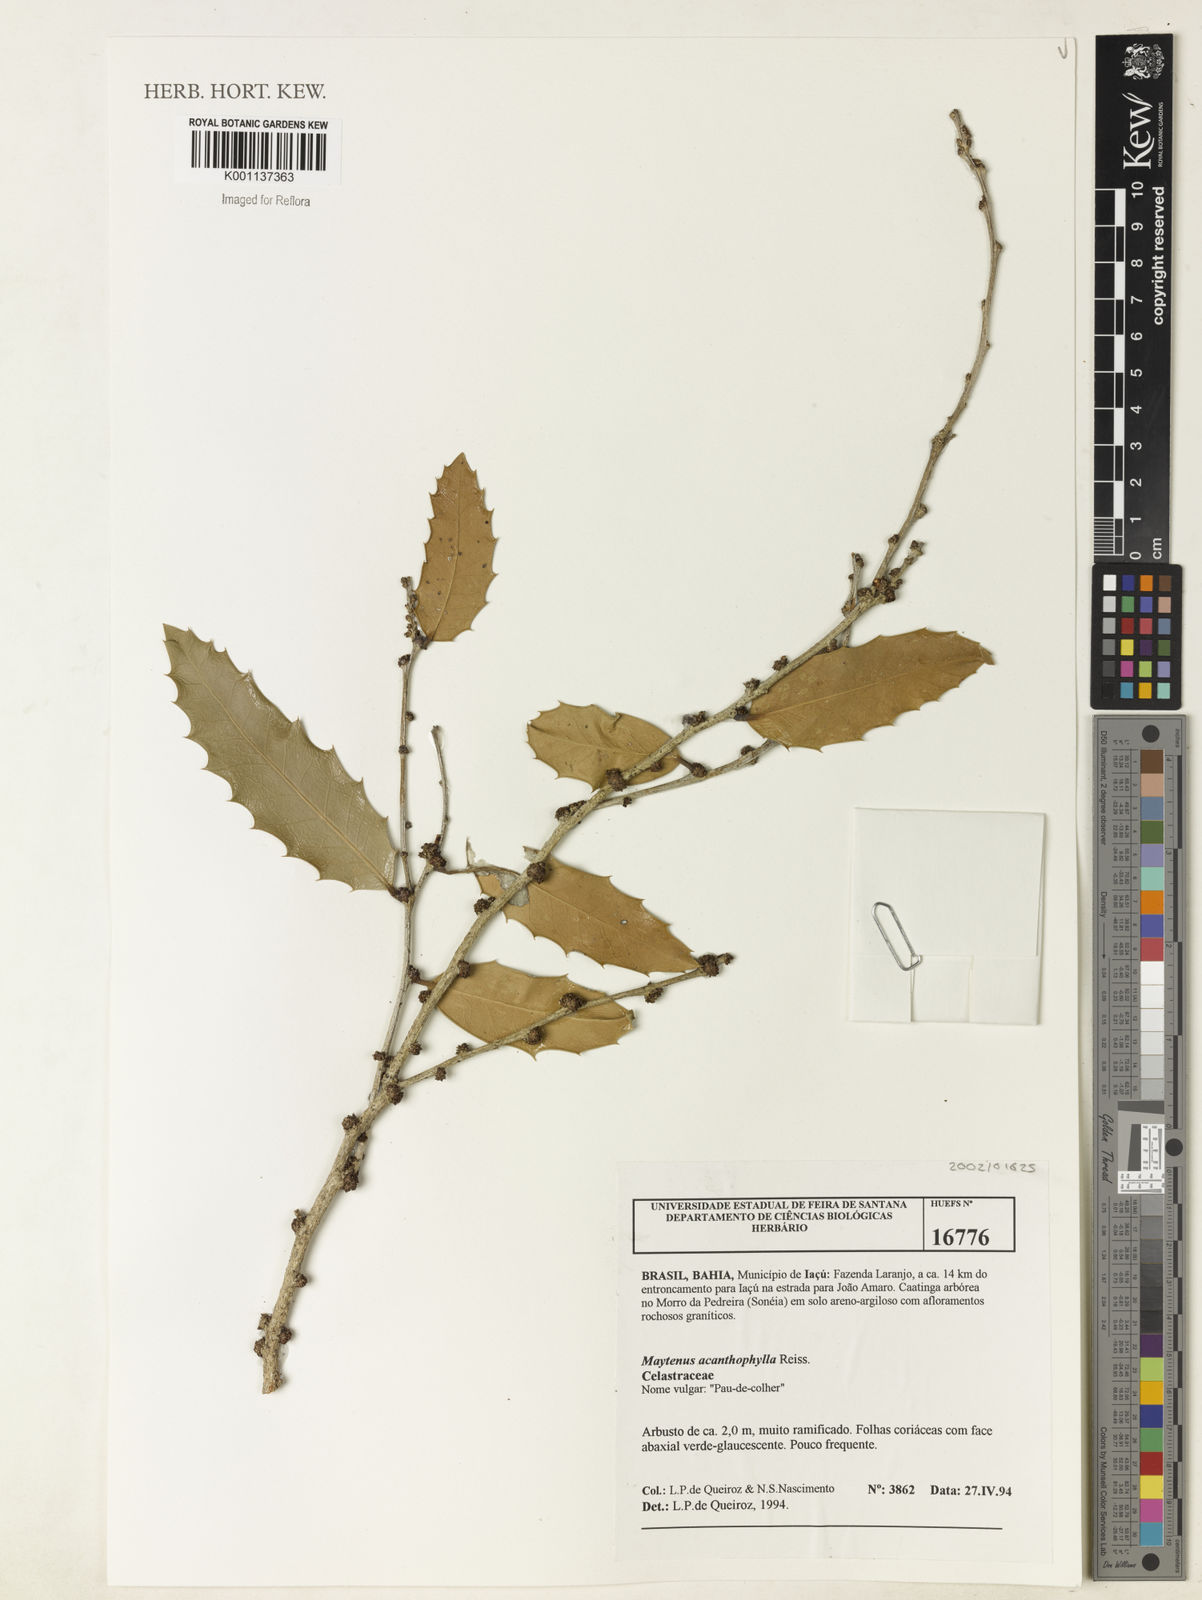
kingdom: Plantae
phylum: Tracheophyta
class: Magnoliopsida
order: Celastrales
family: Celastraceae
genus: Monteverdia
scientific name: Monteverdia acanthophylla
